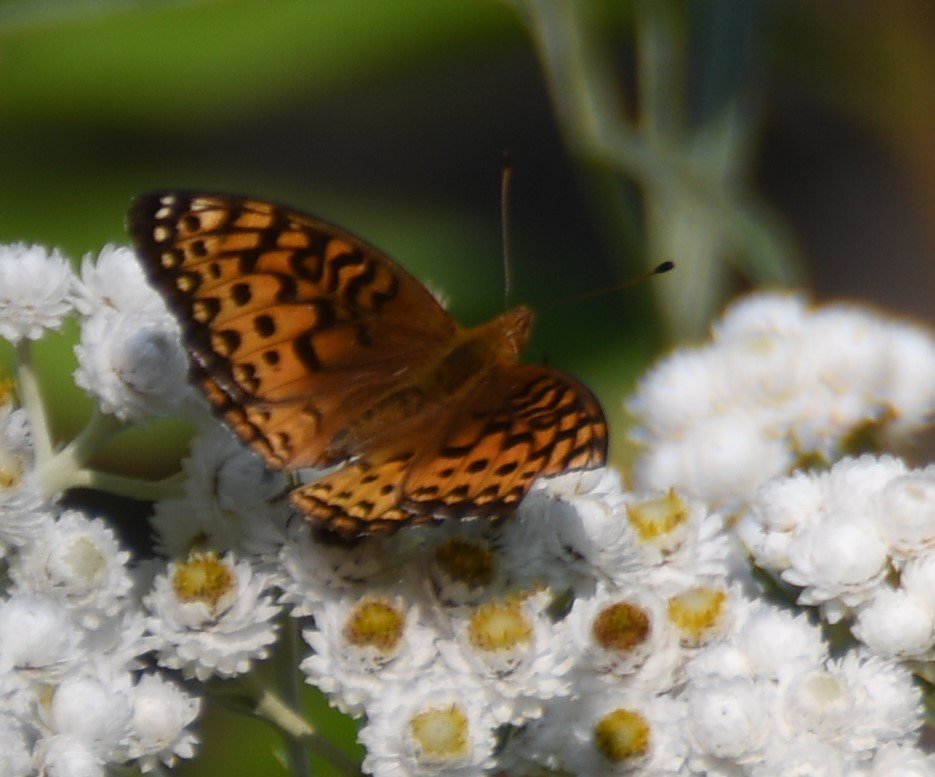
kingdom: Animalia
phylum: Arthropoda
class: Insecta
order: Lepidoptera
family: Nymphalidae
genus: Speyeria
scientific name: Speyeria aphrodite
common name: Aphrodite Fritillary
